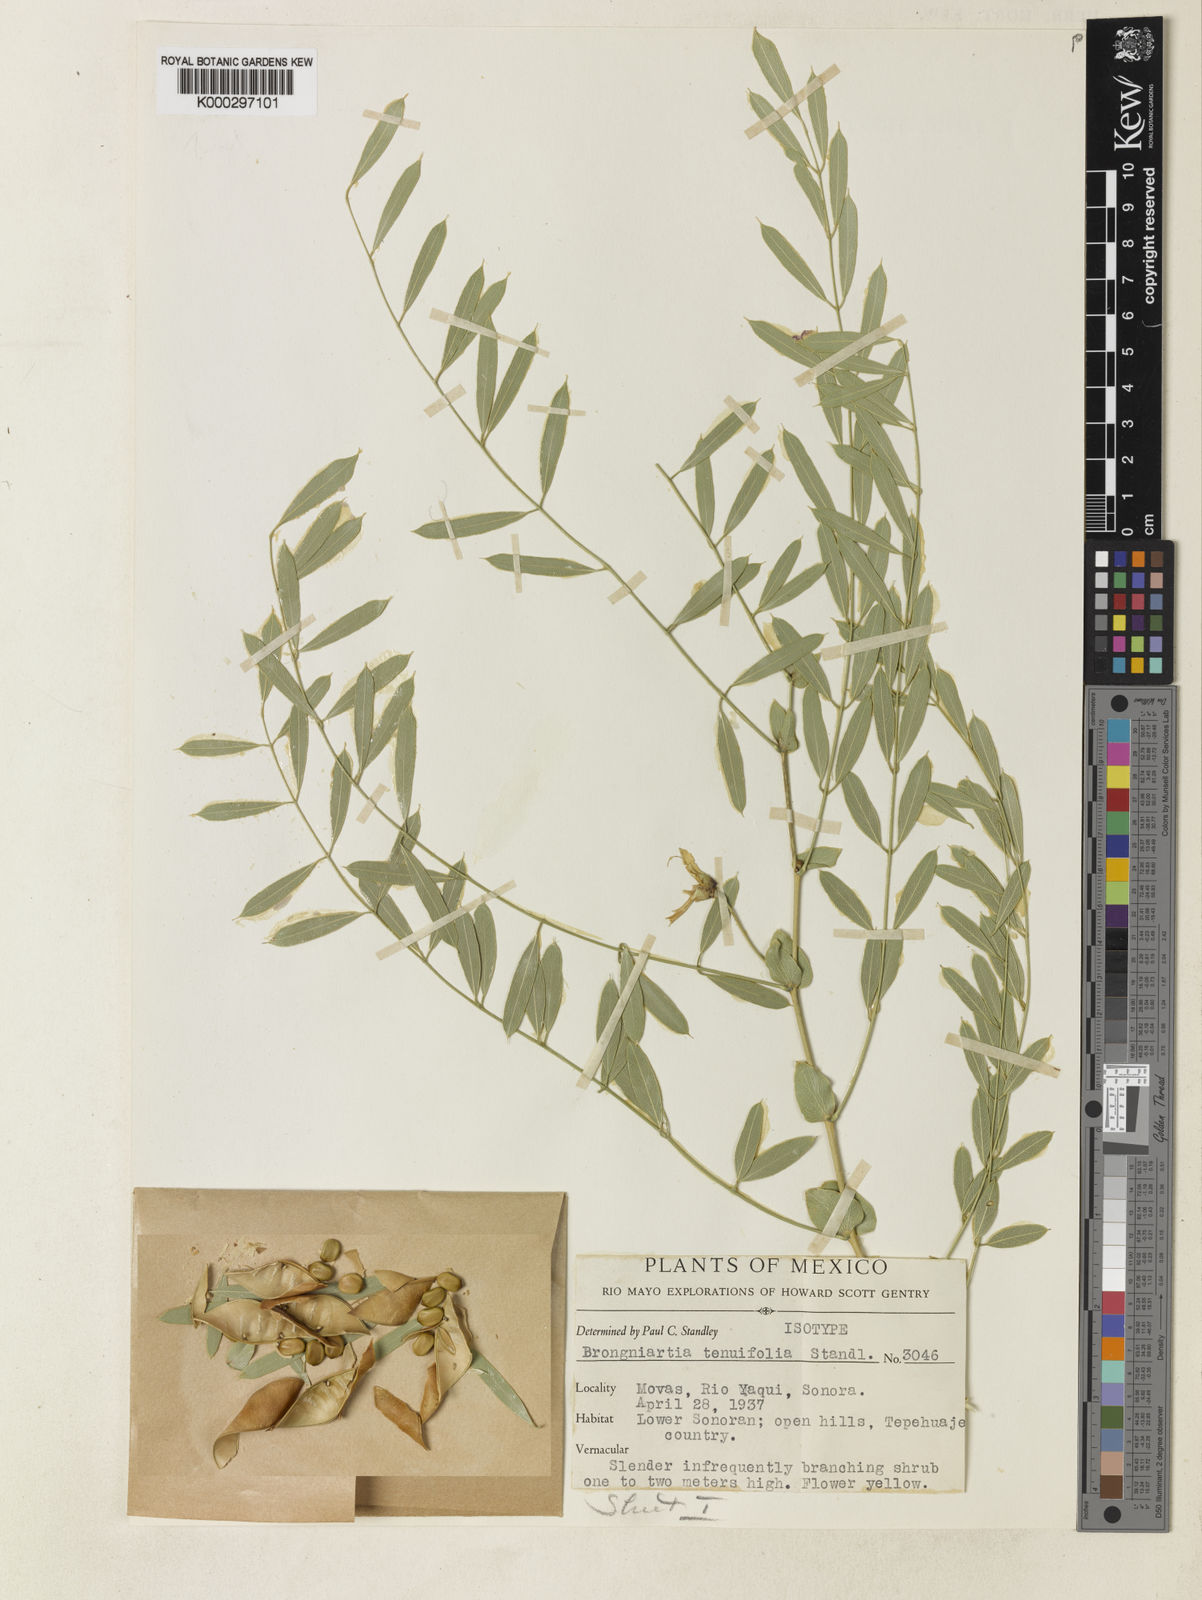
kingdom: Plantae
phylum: Tracheophyta
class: Magnoliopsida
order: Fabales
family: Fabaceae
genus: Brongniartia
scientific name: Brongniartia tenuifolia
